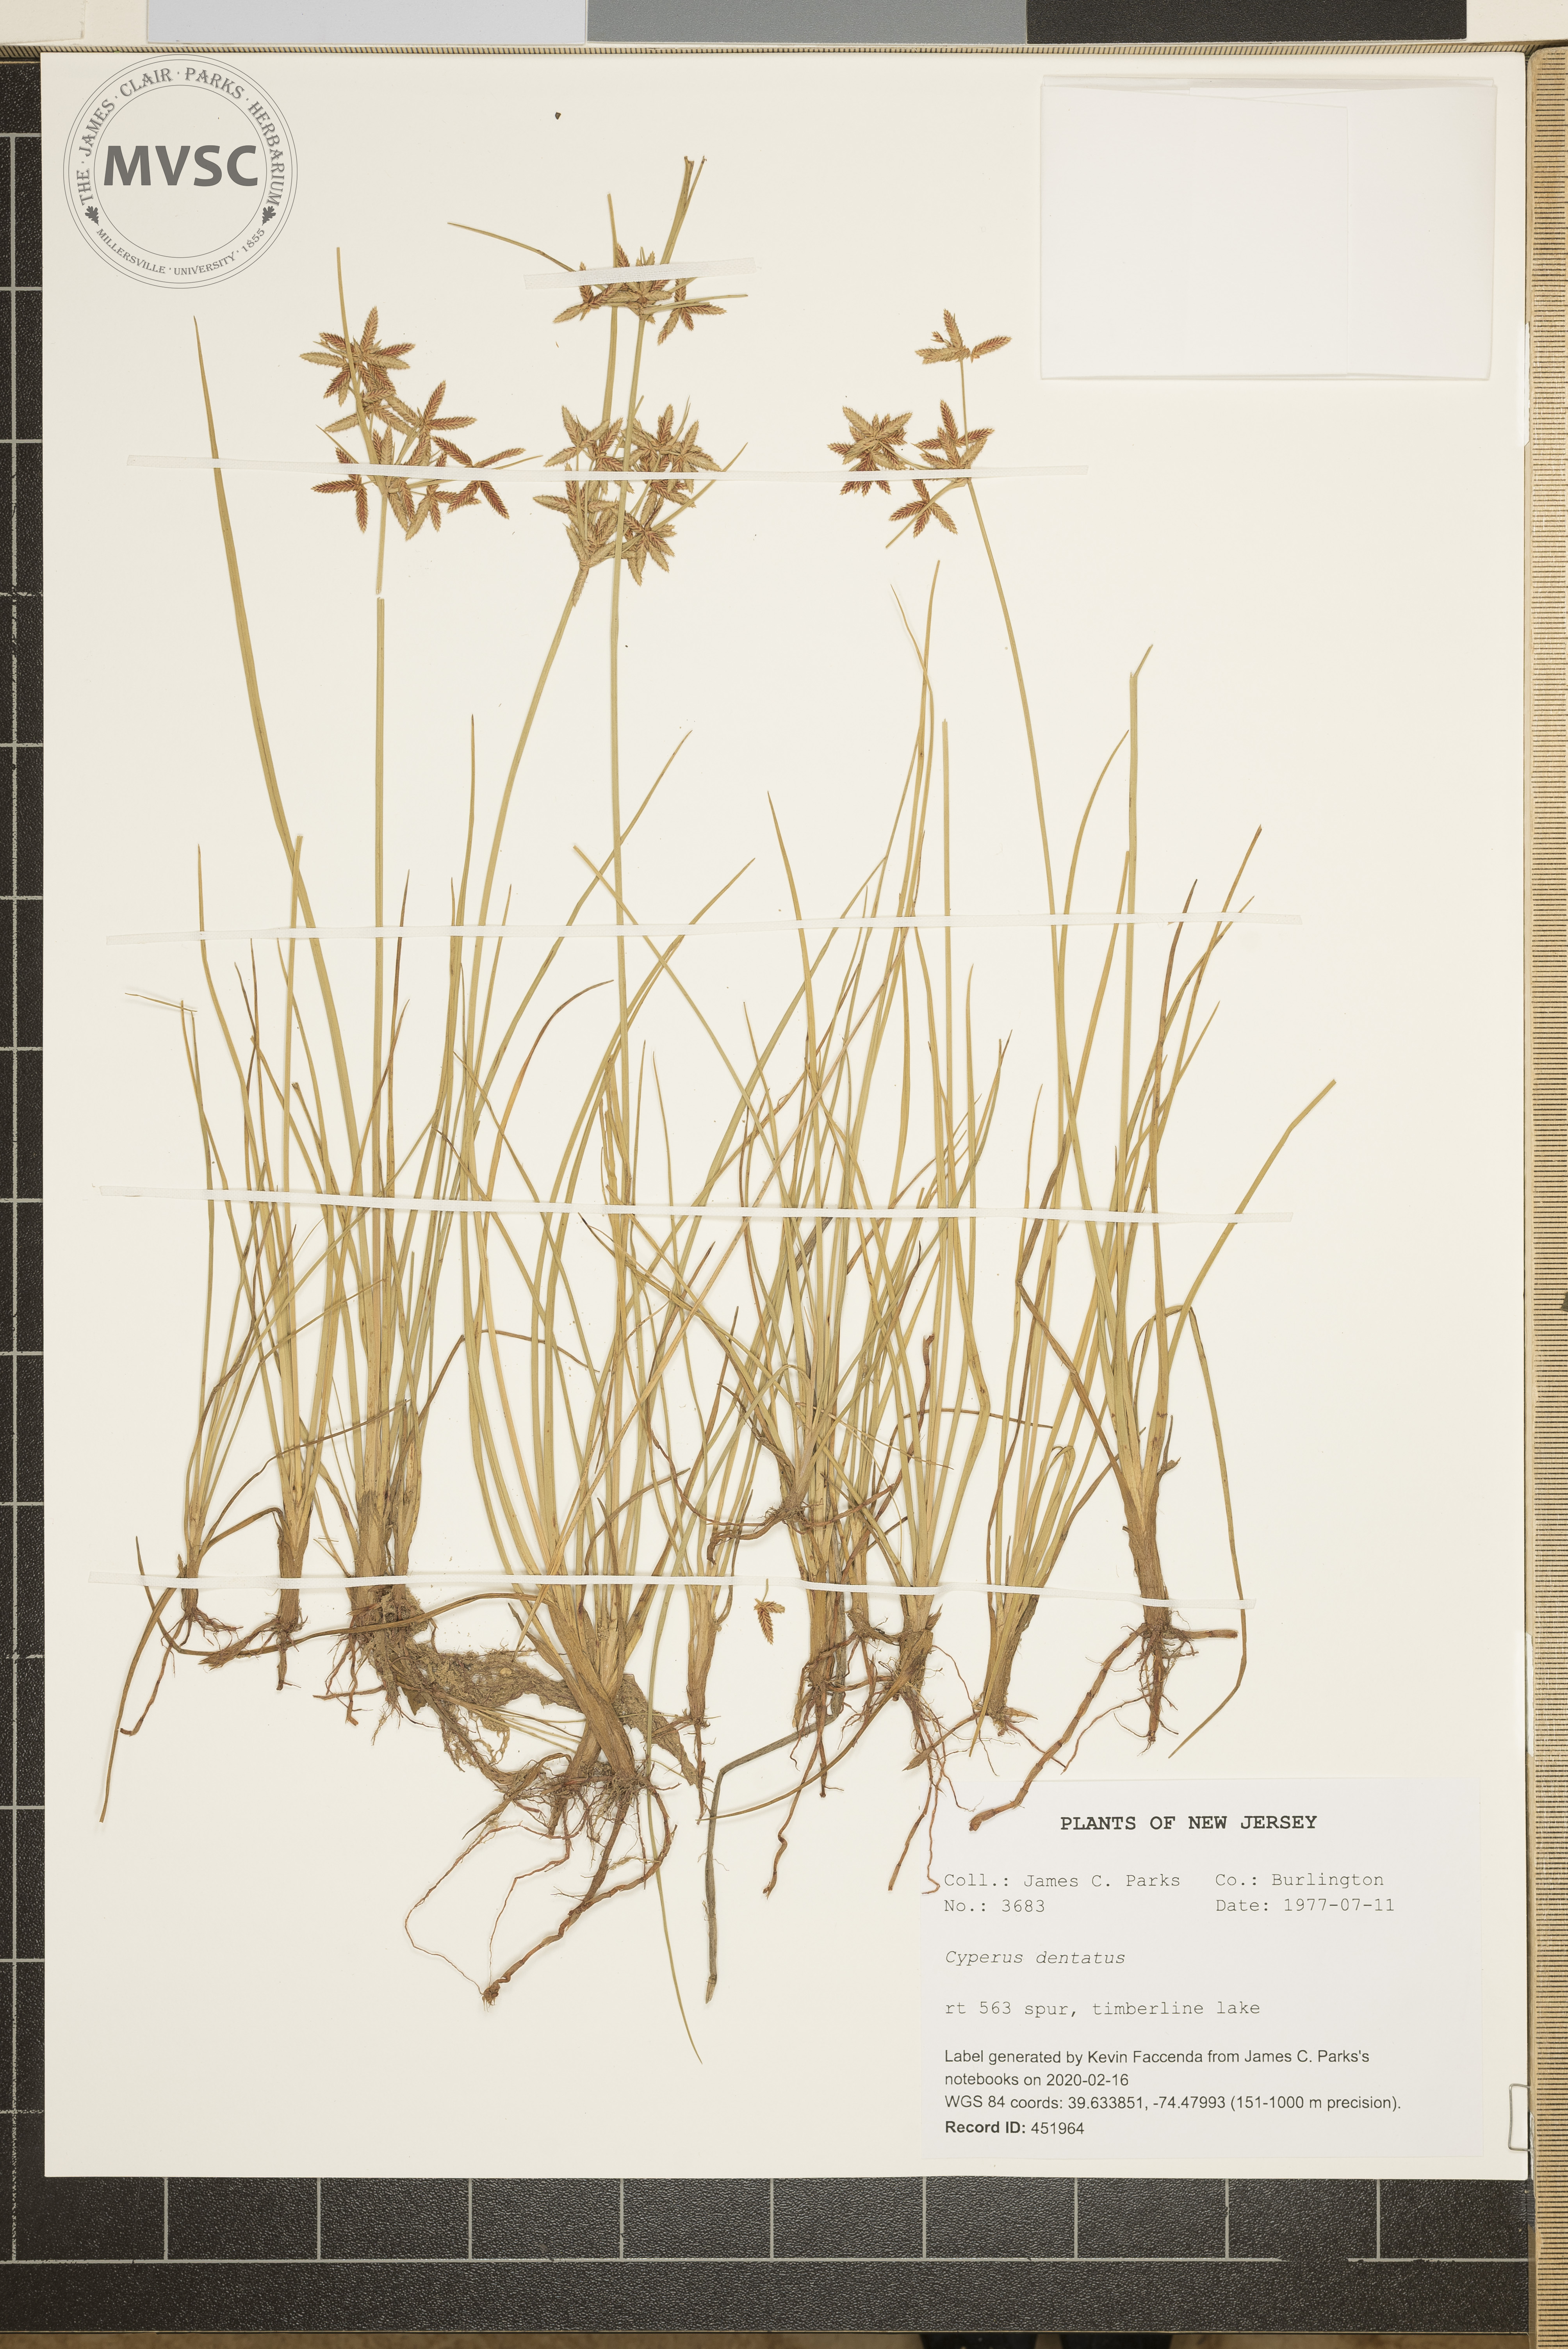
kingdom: Plantae
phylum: Tracheophyta
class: Liliopsida
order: Poales
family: Cyperaceae
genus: Cyperus
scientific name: Cyperus dentatus
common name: Dentate umbrella sedge
